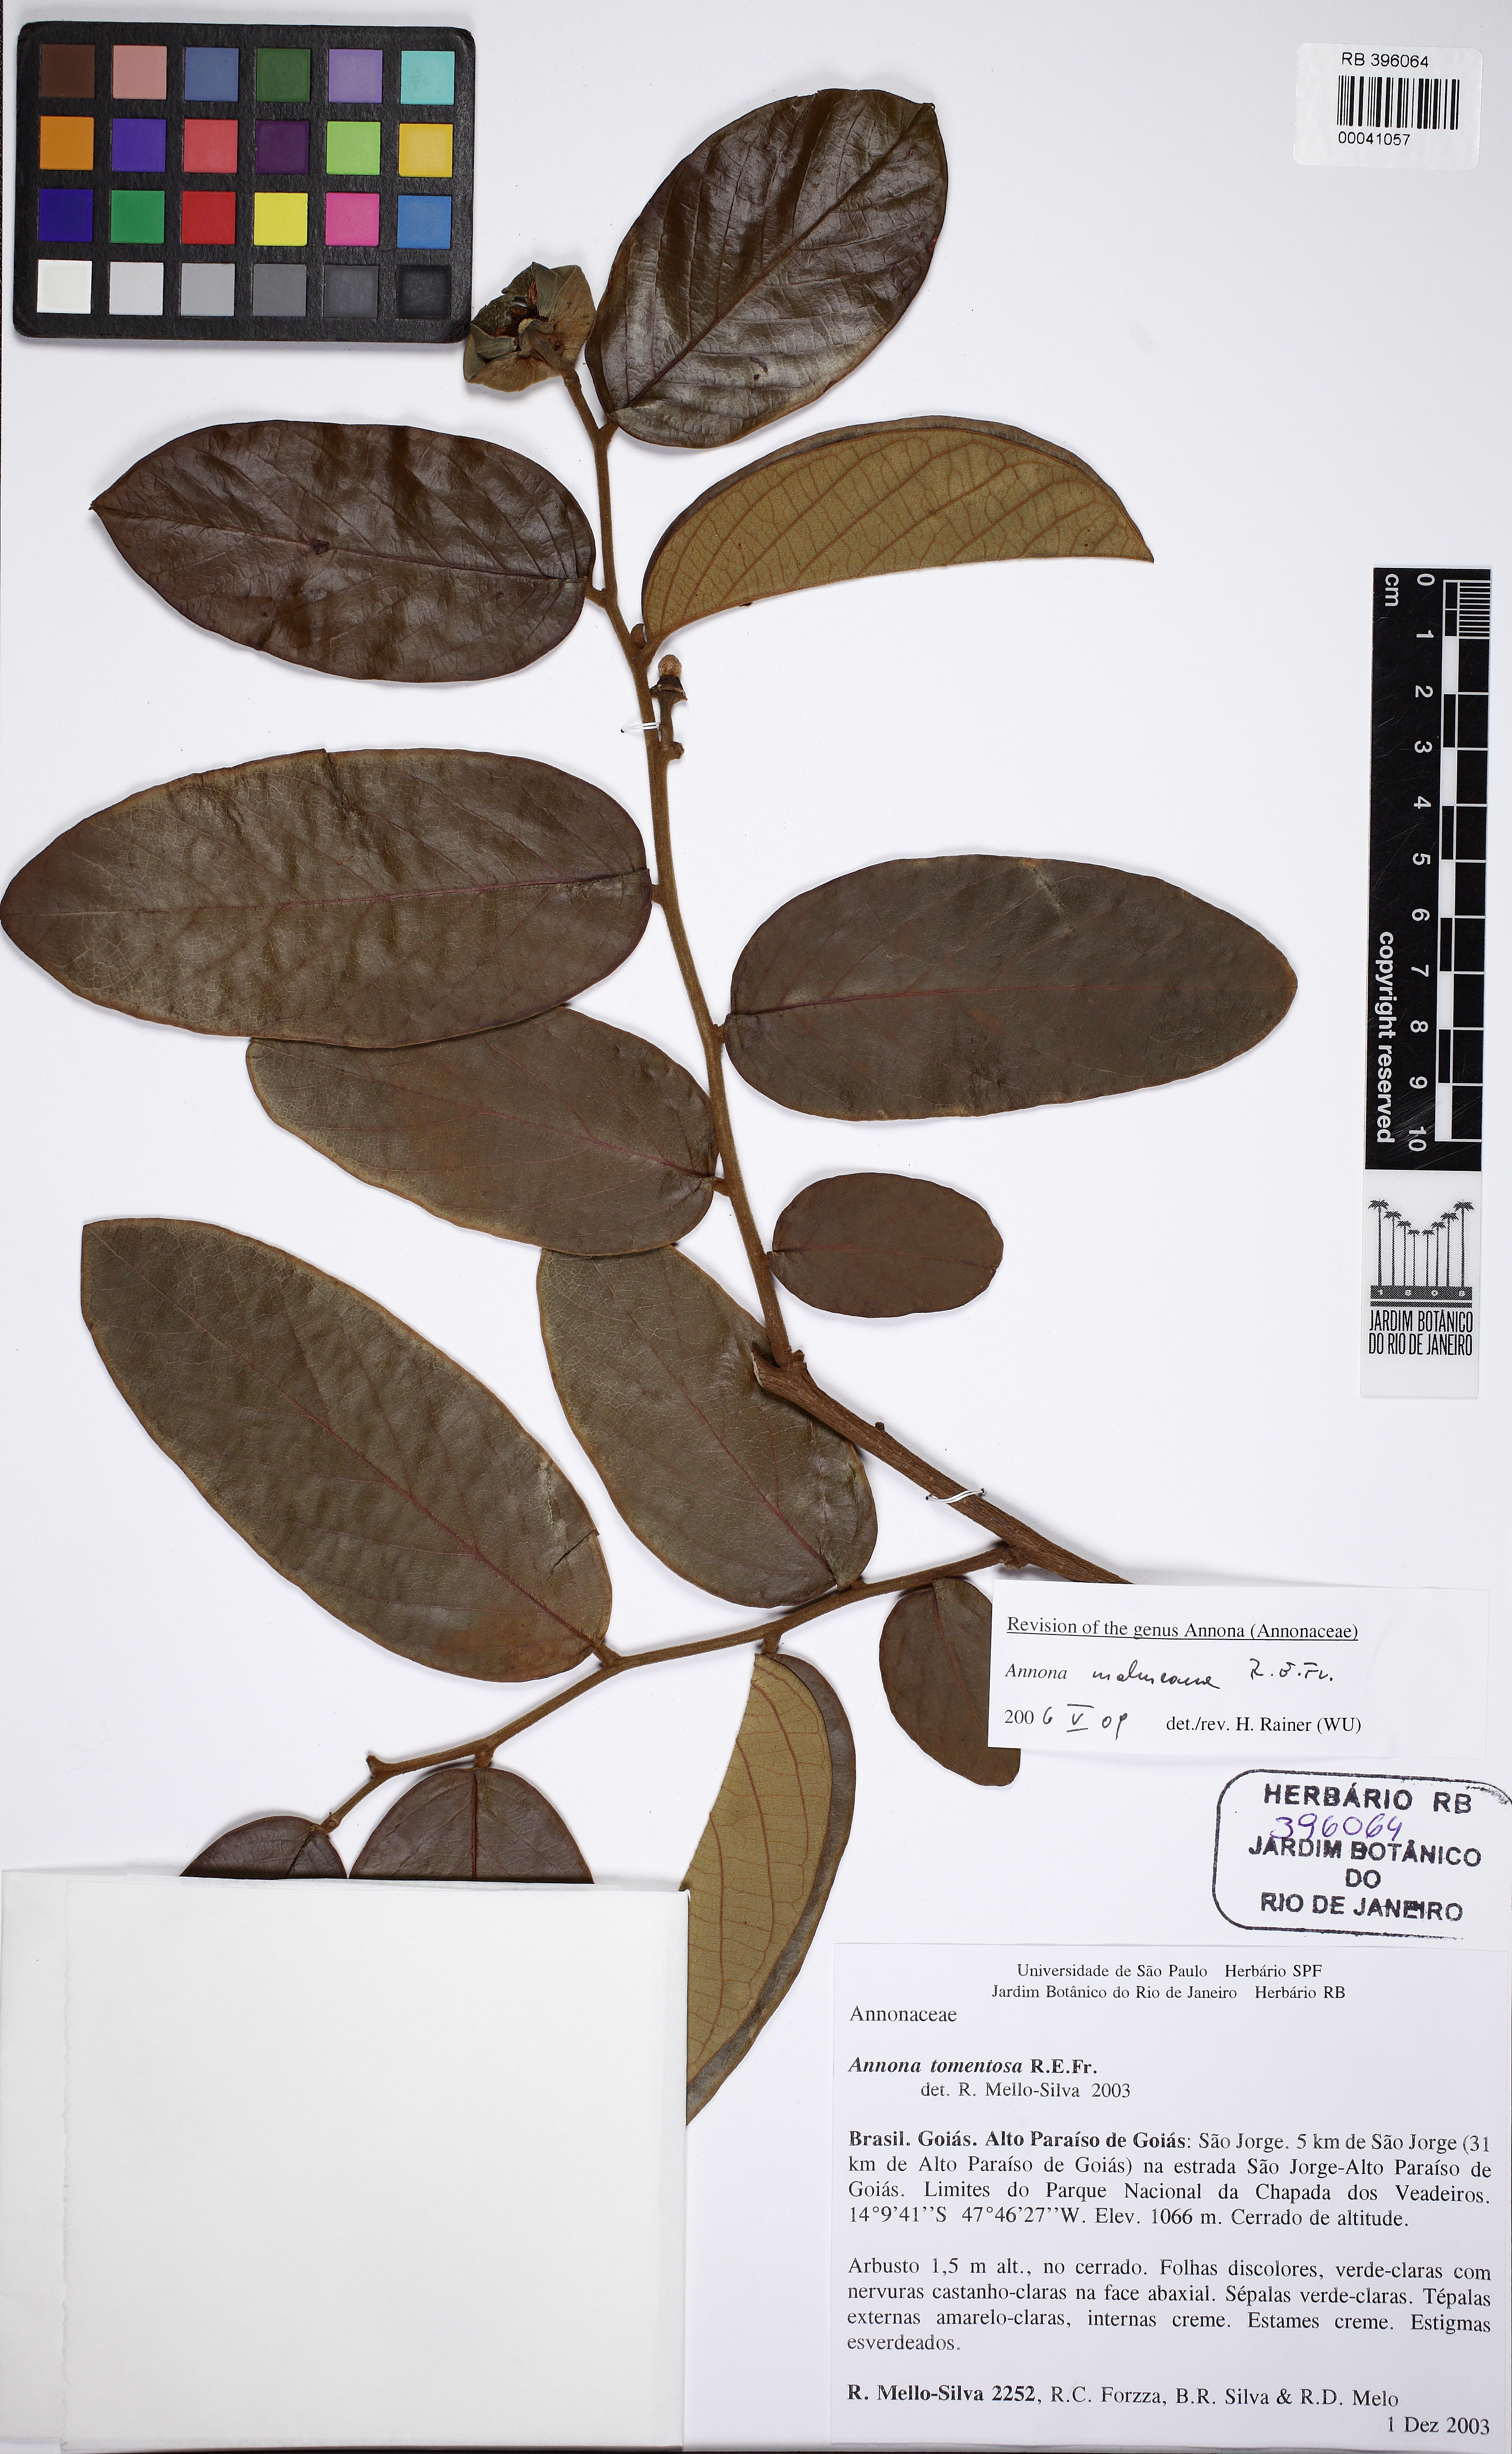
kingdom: Plantae
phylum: Tracheophyta
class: Magnoliopsida
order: Magnoliales
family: Annonaceae
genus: Annona
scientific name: Annona malmeana
